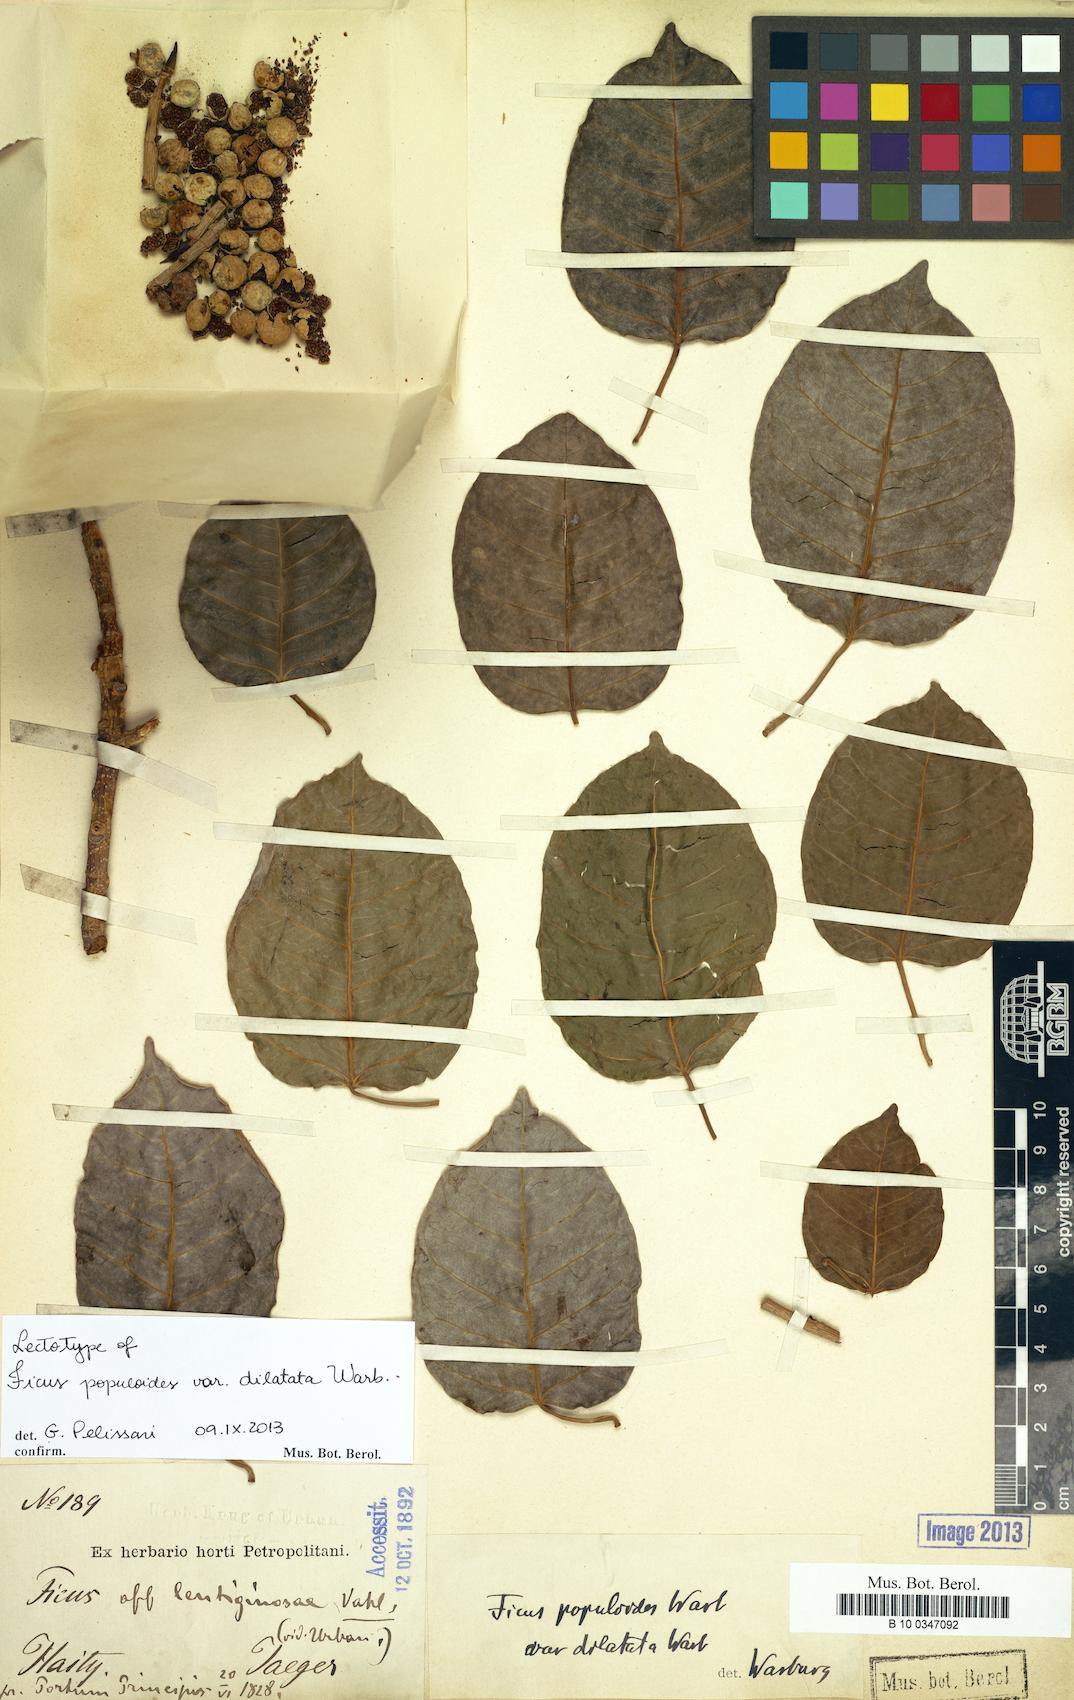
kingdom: Plantae
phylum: Tracheophyta
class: Magnoliopsida
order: Rosales
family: Moraceae
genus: Ficus
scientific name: Ficus citrifolia
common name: Strangler fig
